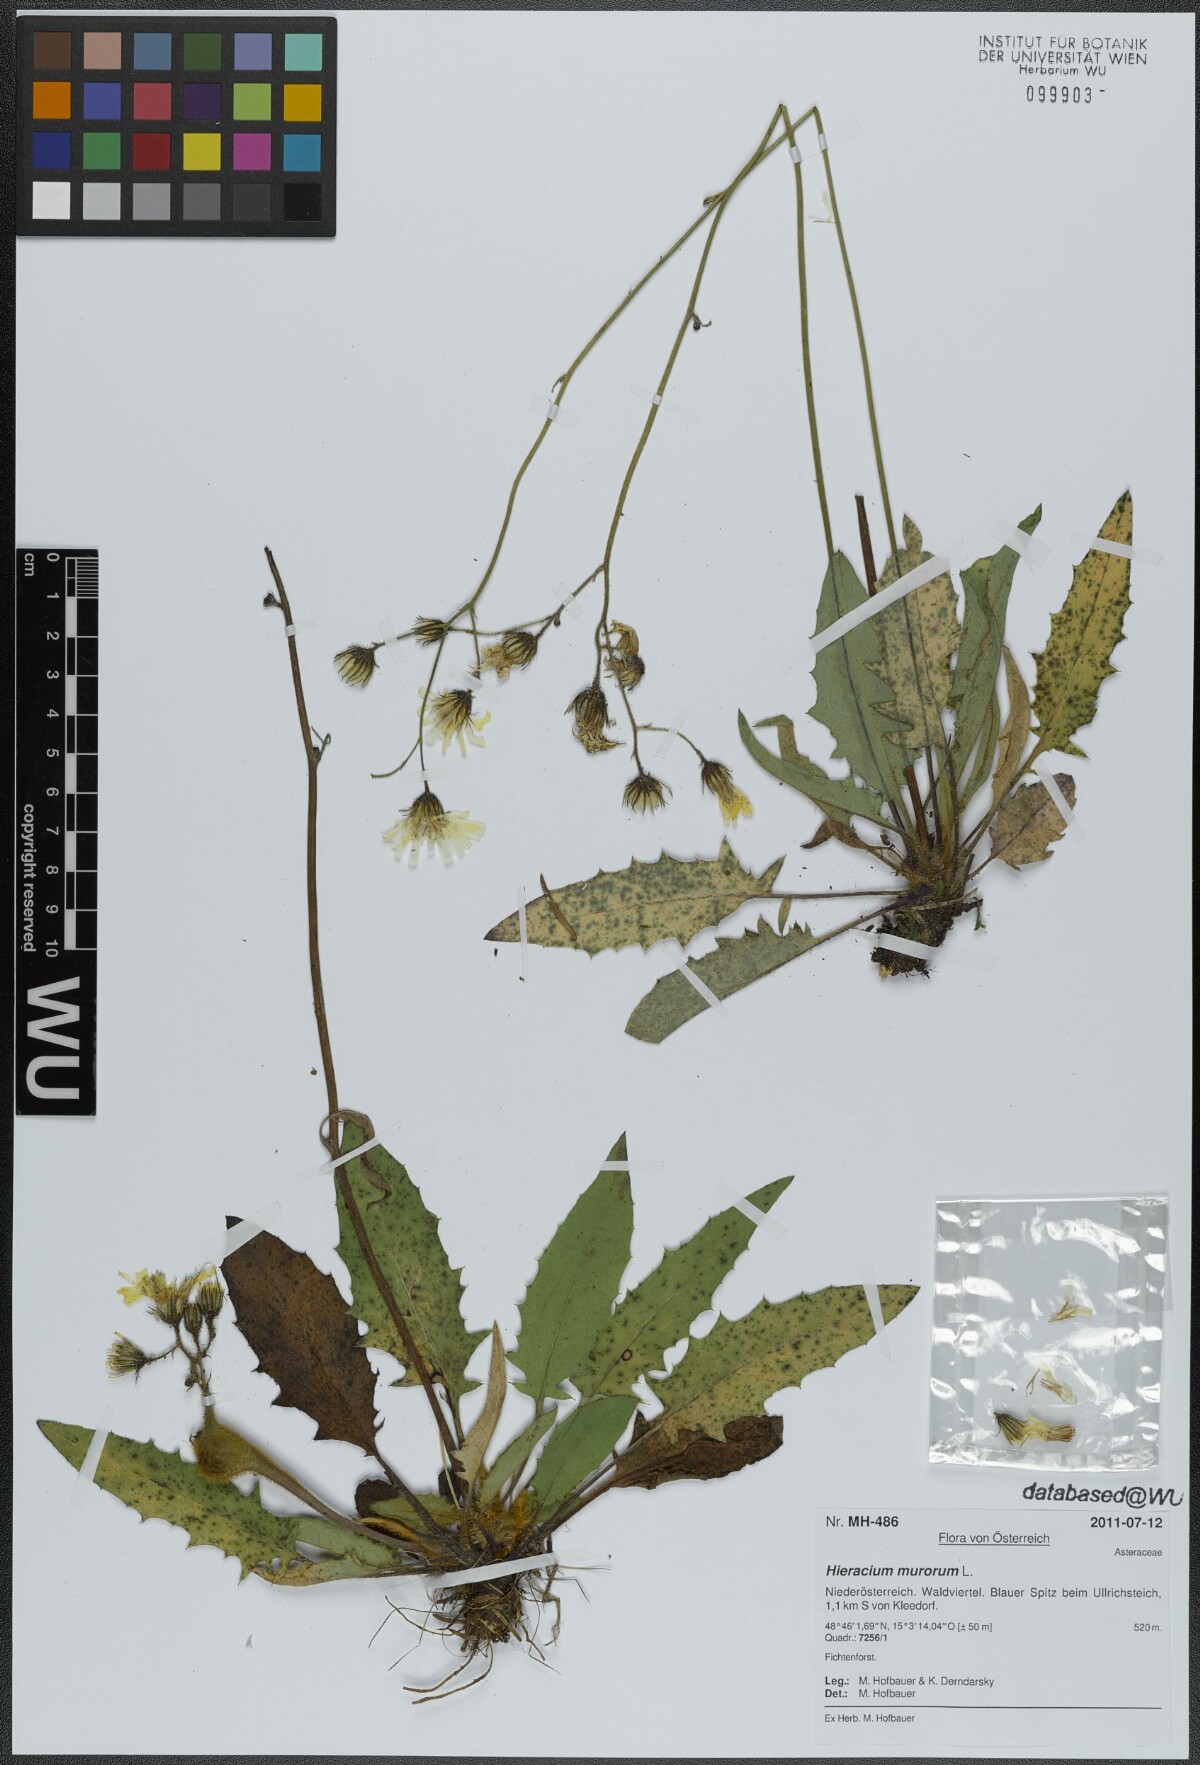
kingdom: Plantae
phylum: Tracheophyta
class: Magnoliopsida
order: Asterales
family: Asteraceae
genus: Hieracium
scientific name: Hieracium murorum
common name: Wall hawkweed
